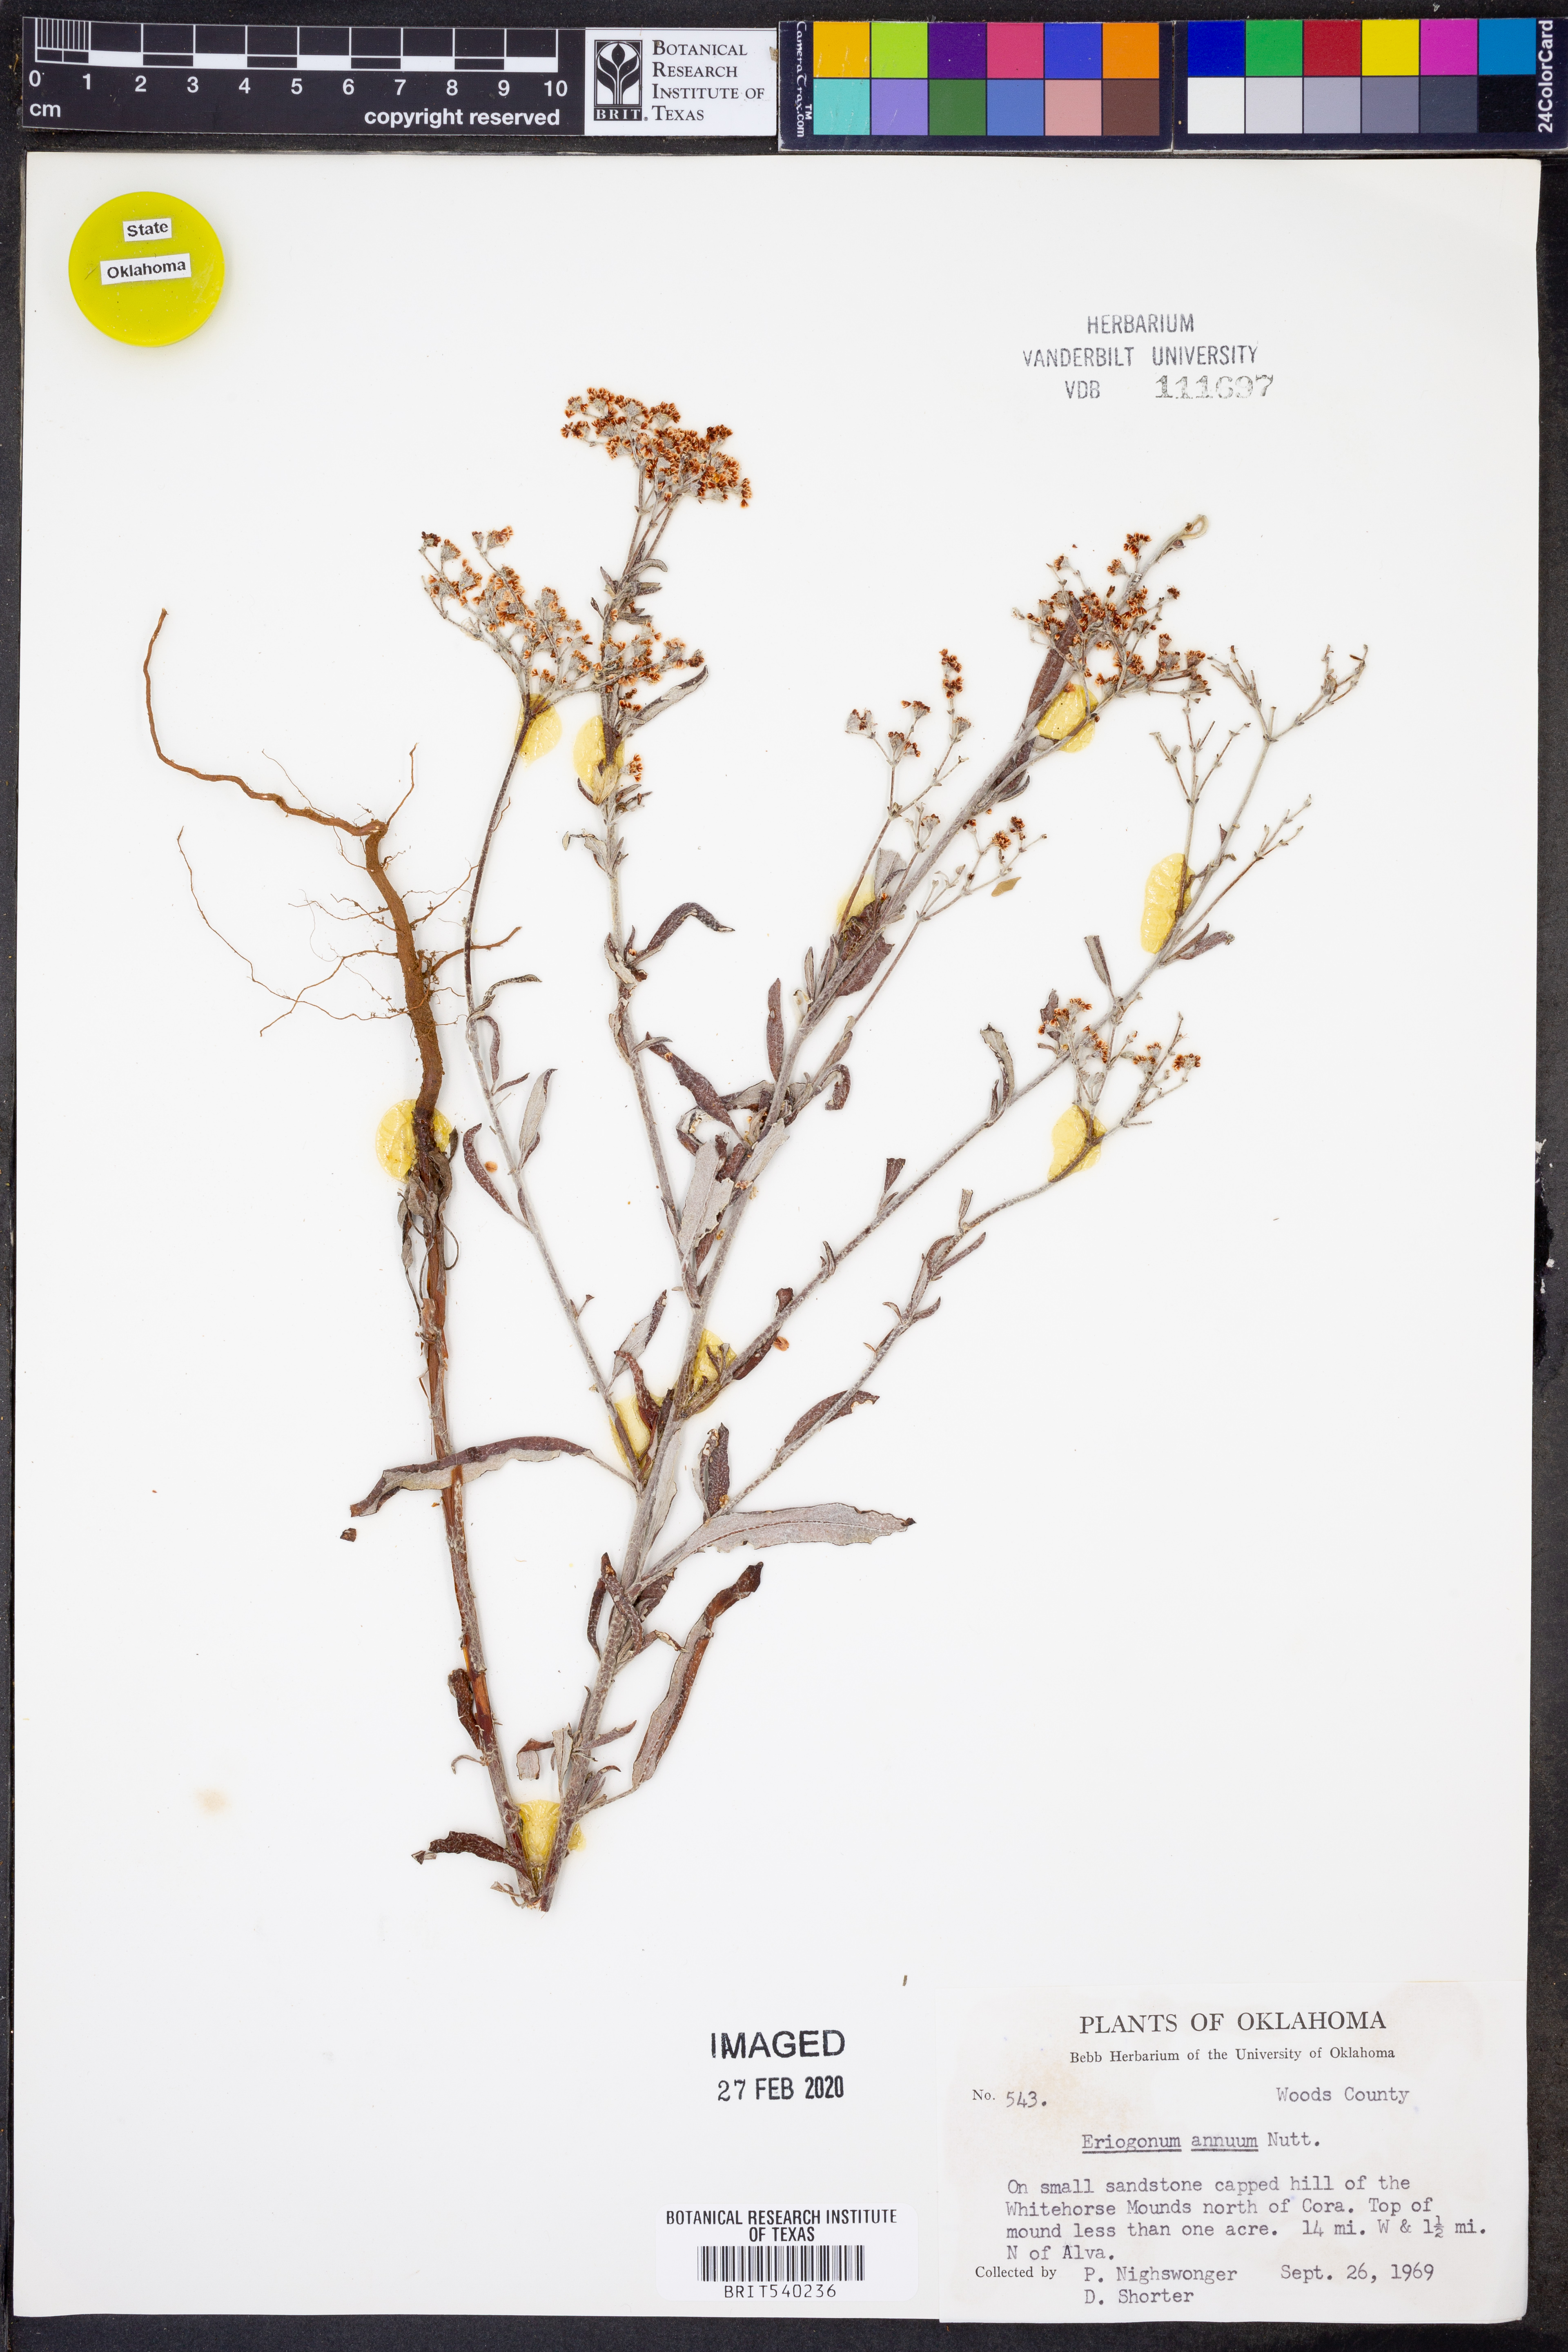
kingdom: Plantae
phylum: Tracheophyta
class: Magnoliopsida
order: Caryophyllales
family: Polygonaceae
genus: Eriogonum
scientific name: Eriogonum annuum
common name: Annual wild buckwheat
